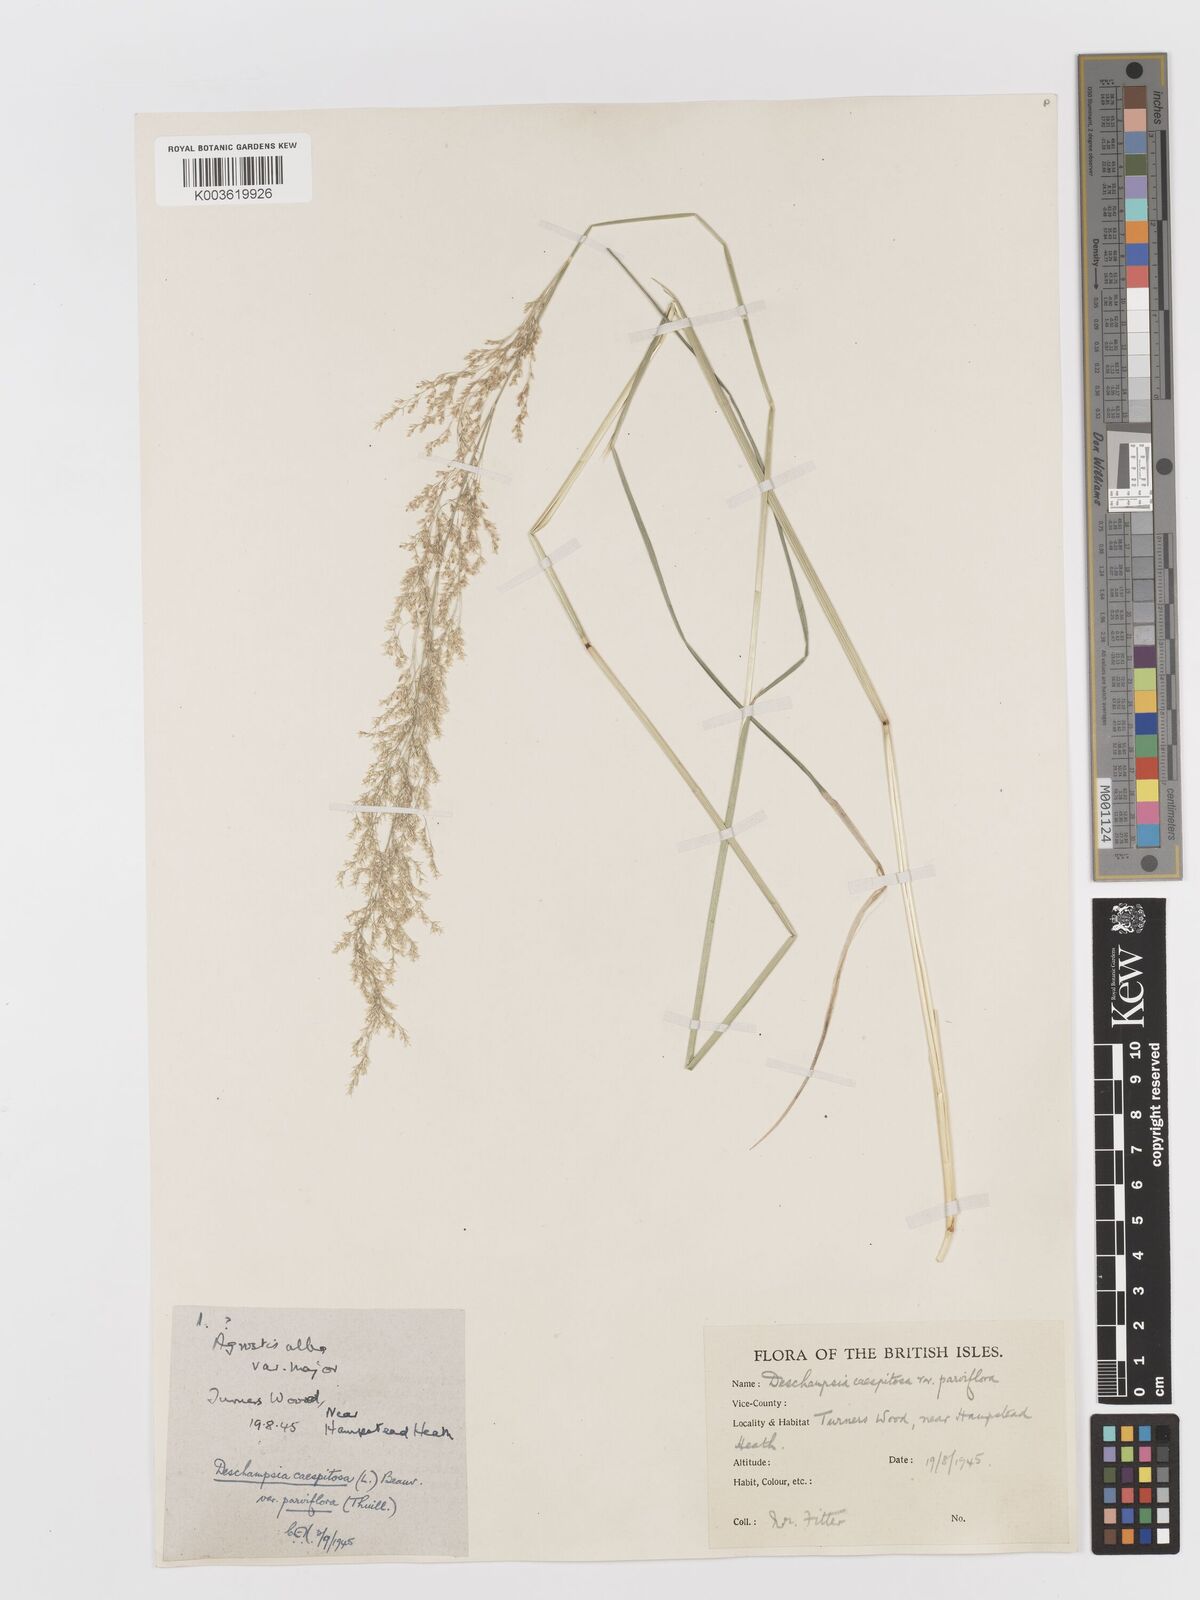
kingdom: Plantae
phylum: Tracheophyta
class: Liliopsida
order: Poales
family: Poaceae
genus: Deschampsia
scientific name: Deschampsia
